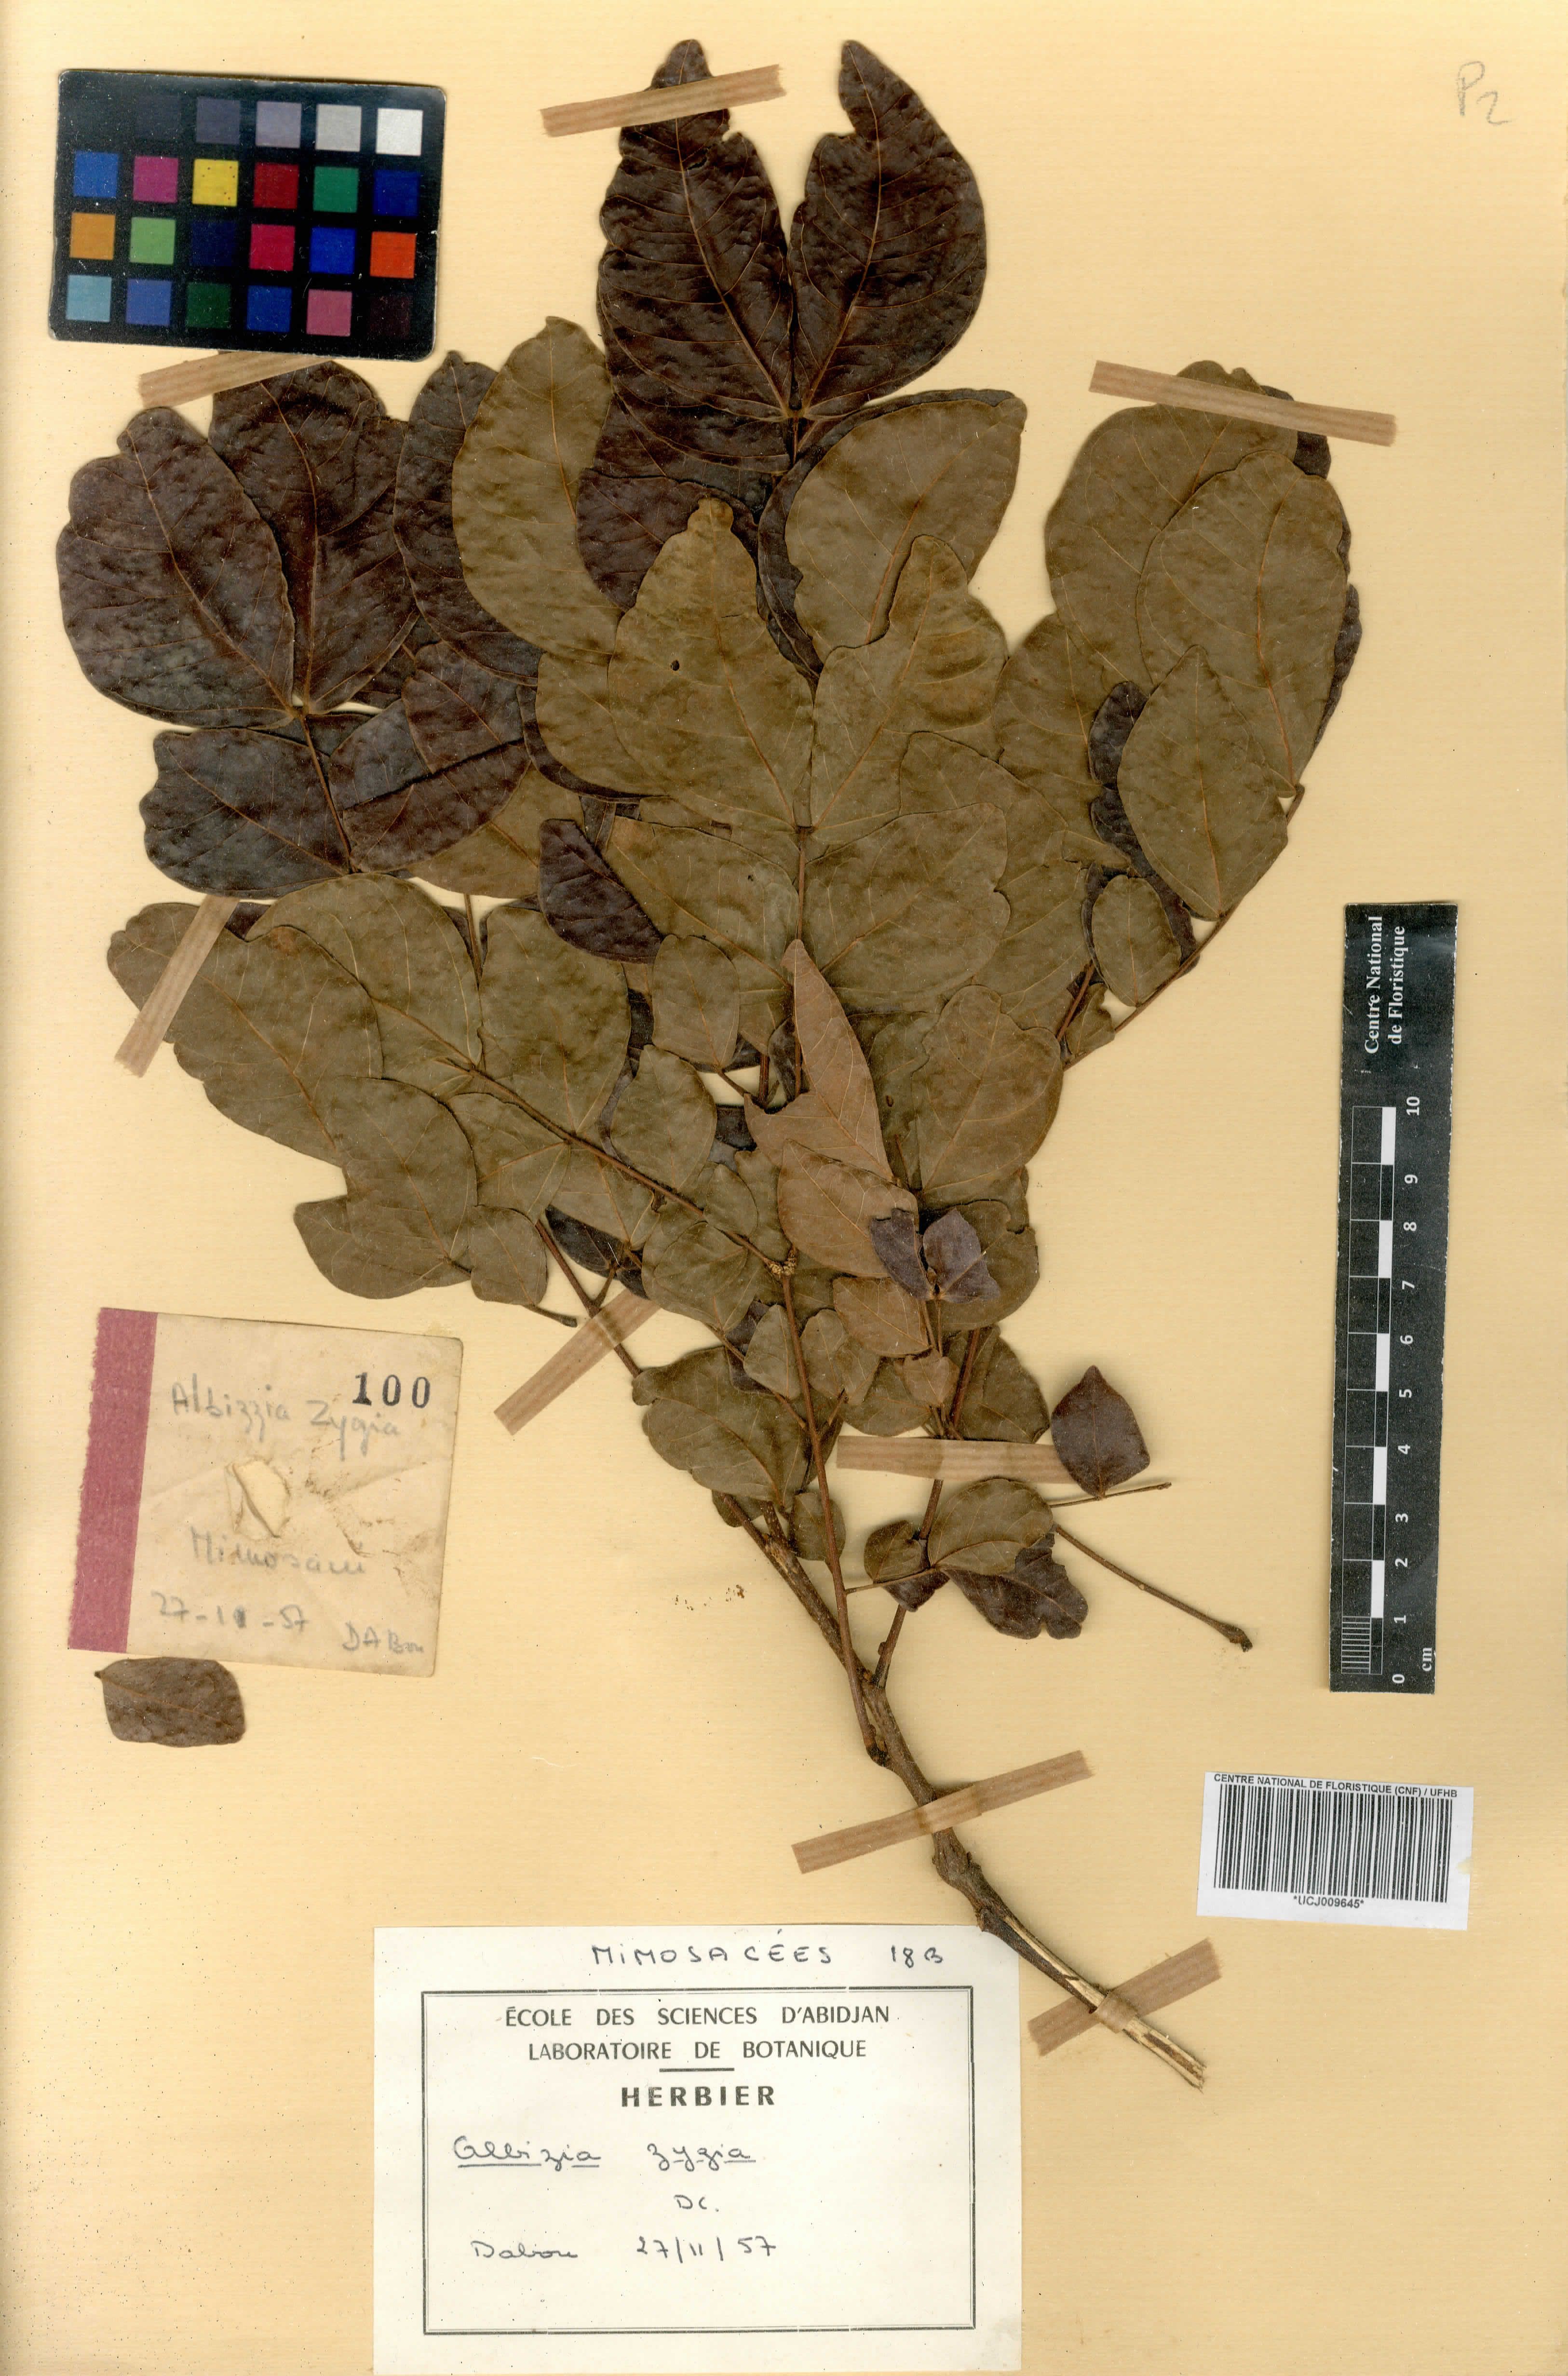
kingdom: Plantae
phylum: Tracheophyta
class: Magnoliopsida
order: Fabales
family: Fabaceae
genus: Albizia
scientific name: Albizia zygia
